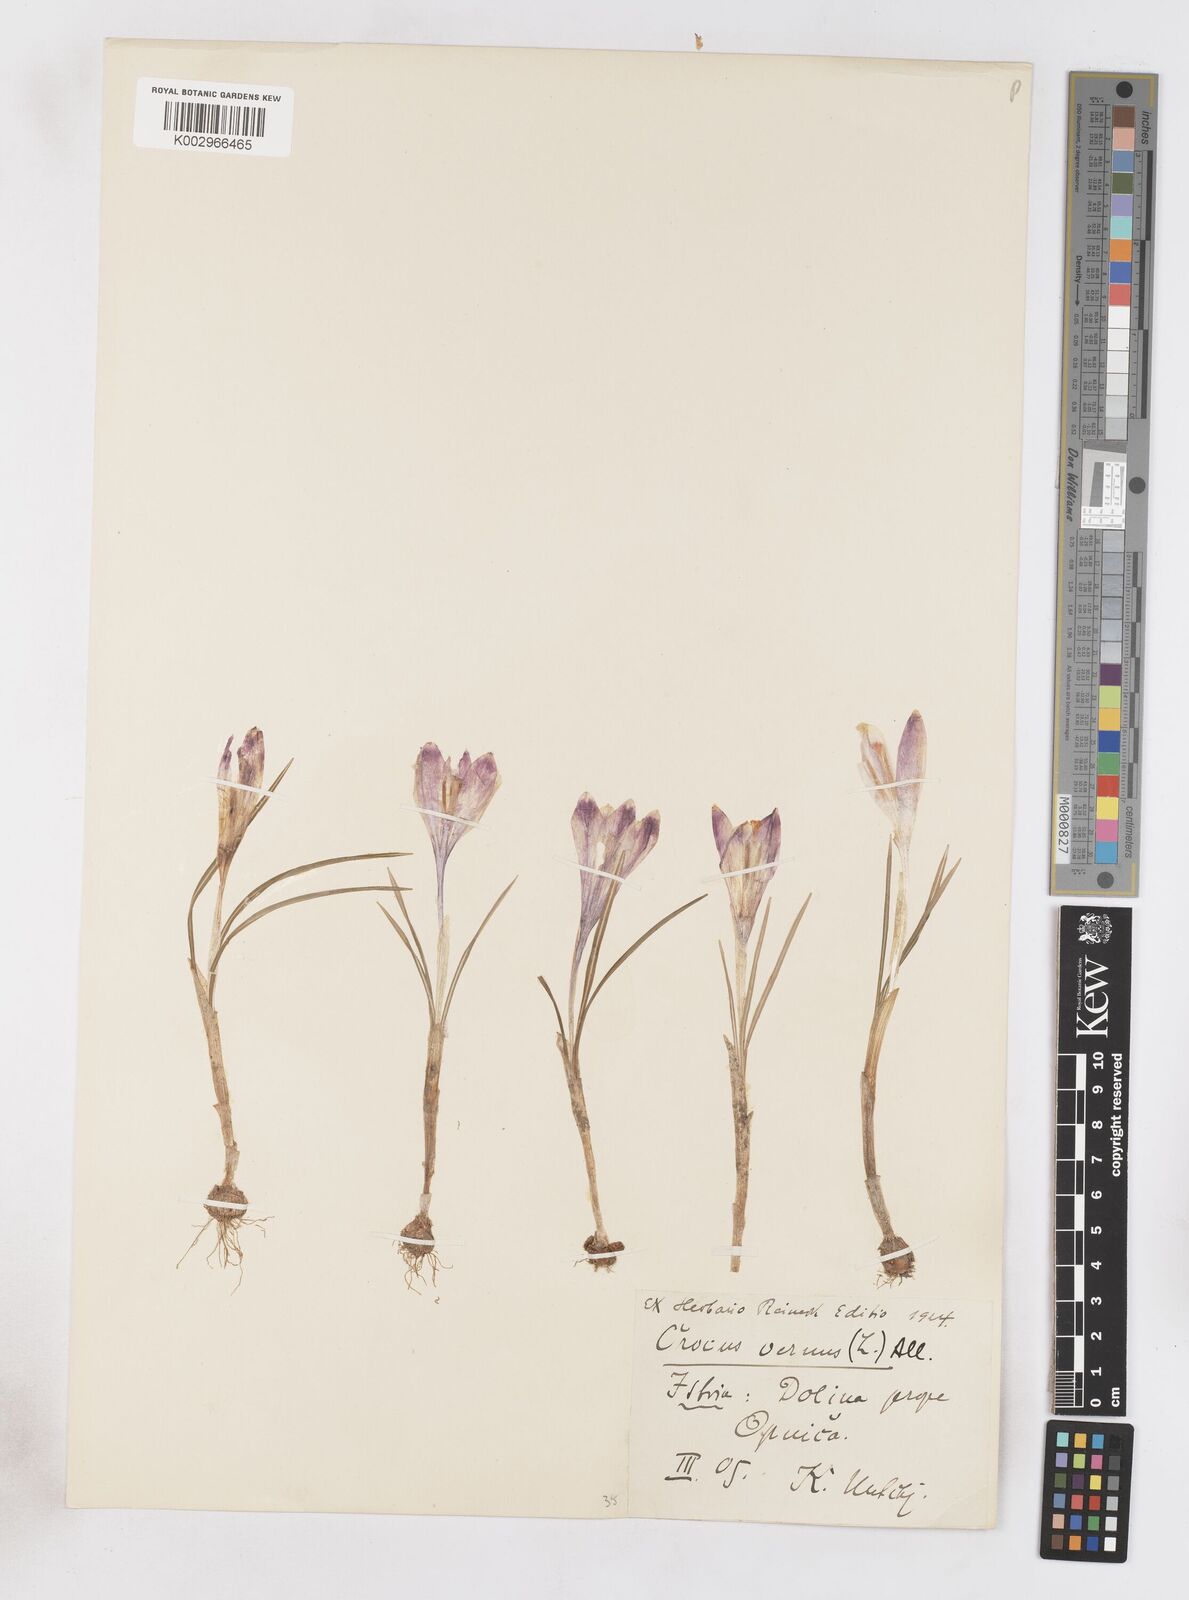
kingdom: Plantae
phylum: Tracheophyta
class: Liliopsida
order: Asparagales
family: Iridaceae
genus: Crocus
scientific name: Crocus vernus
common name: Spring crocus
